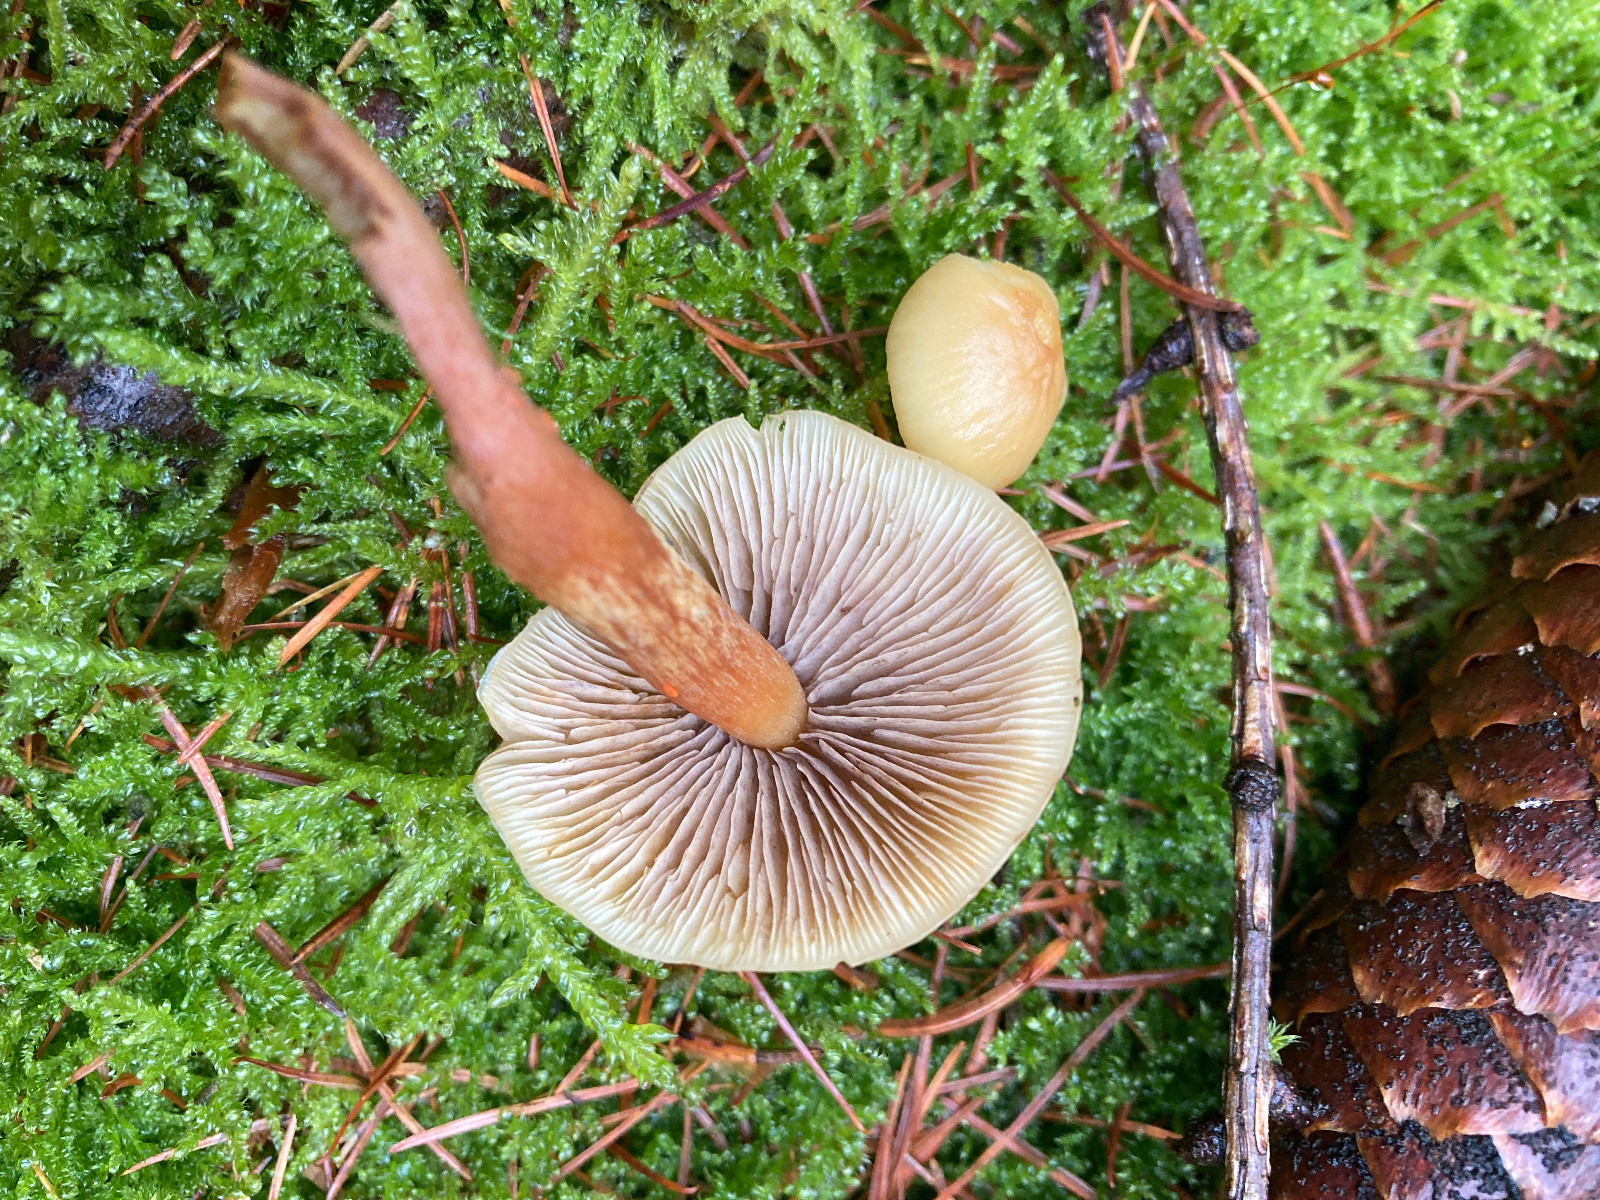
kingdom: Fungi
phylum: Basidiomycota
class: Agaricomycetes
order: Agaricales
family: Strophariaceae
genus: Hypholoma
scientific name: Hypholoma capnoides
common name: gran-svovlhat
